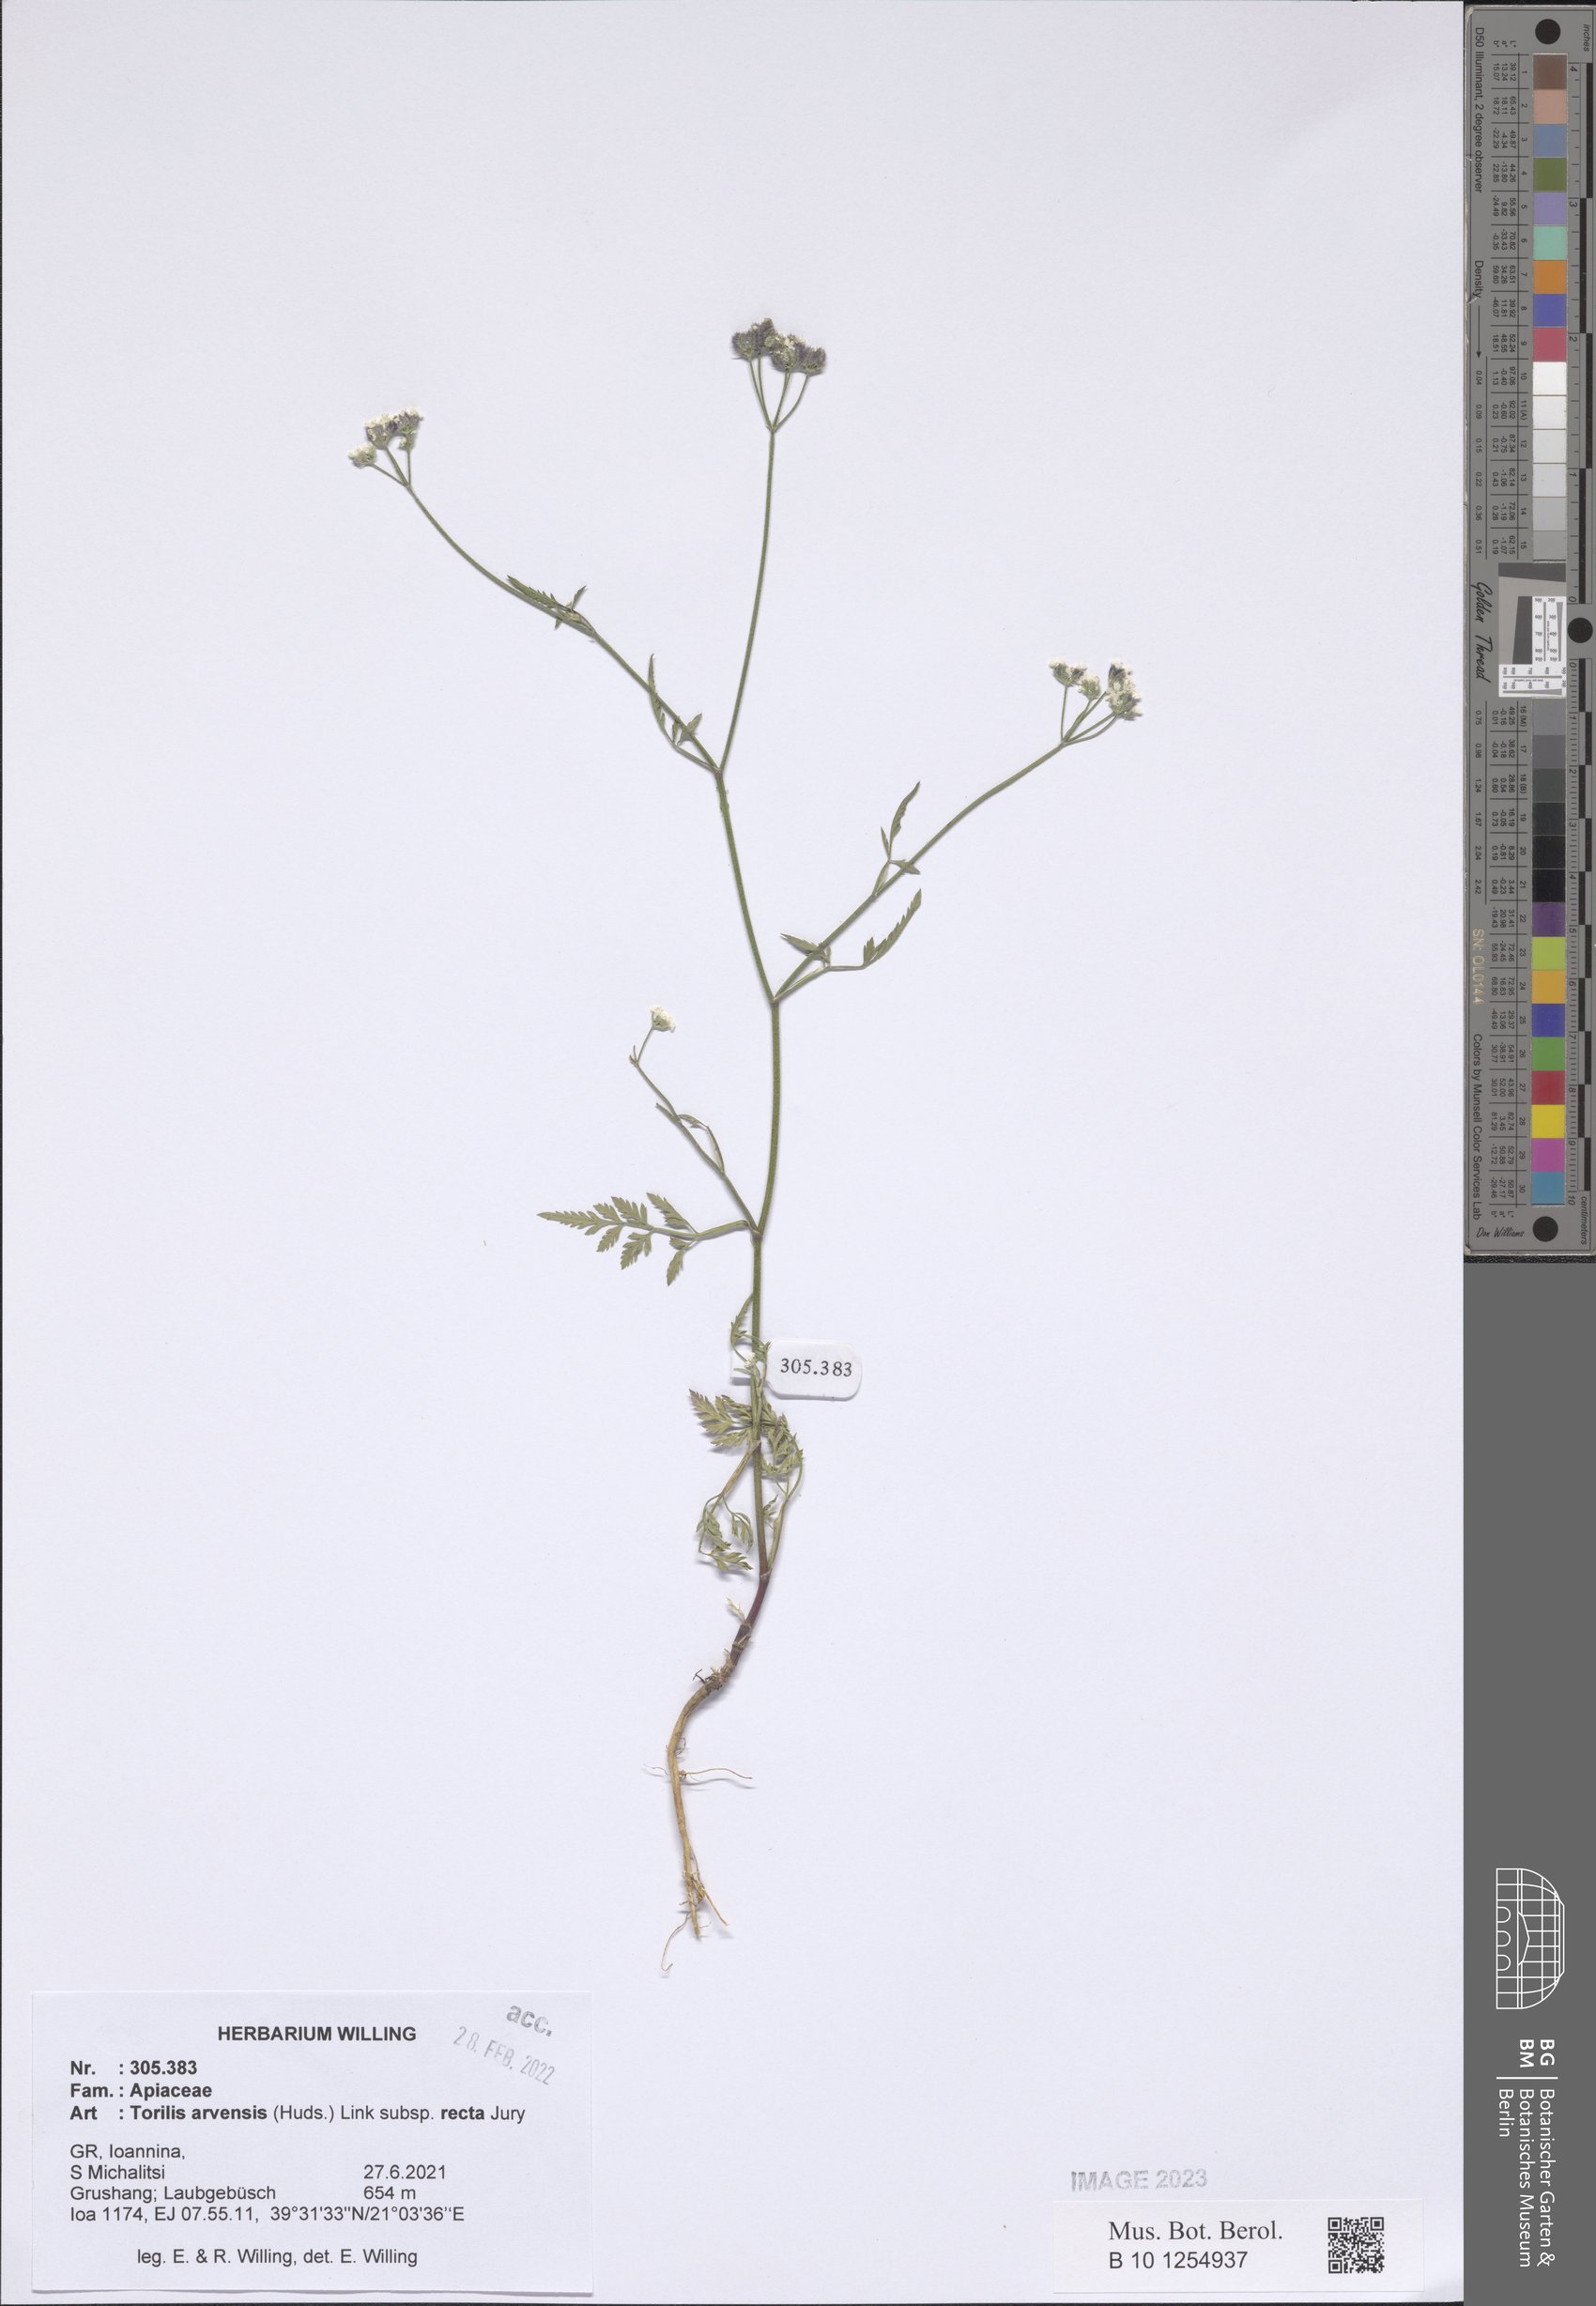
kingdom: Plantae
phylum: Tracheophyta
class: Magnoliopsida
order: Apiales
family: Apiaceae
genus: Torilis
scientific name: Torilis arvensis
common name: Spreading hedge-parsley
